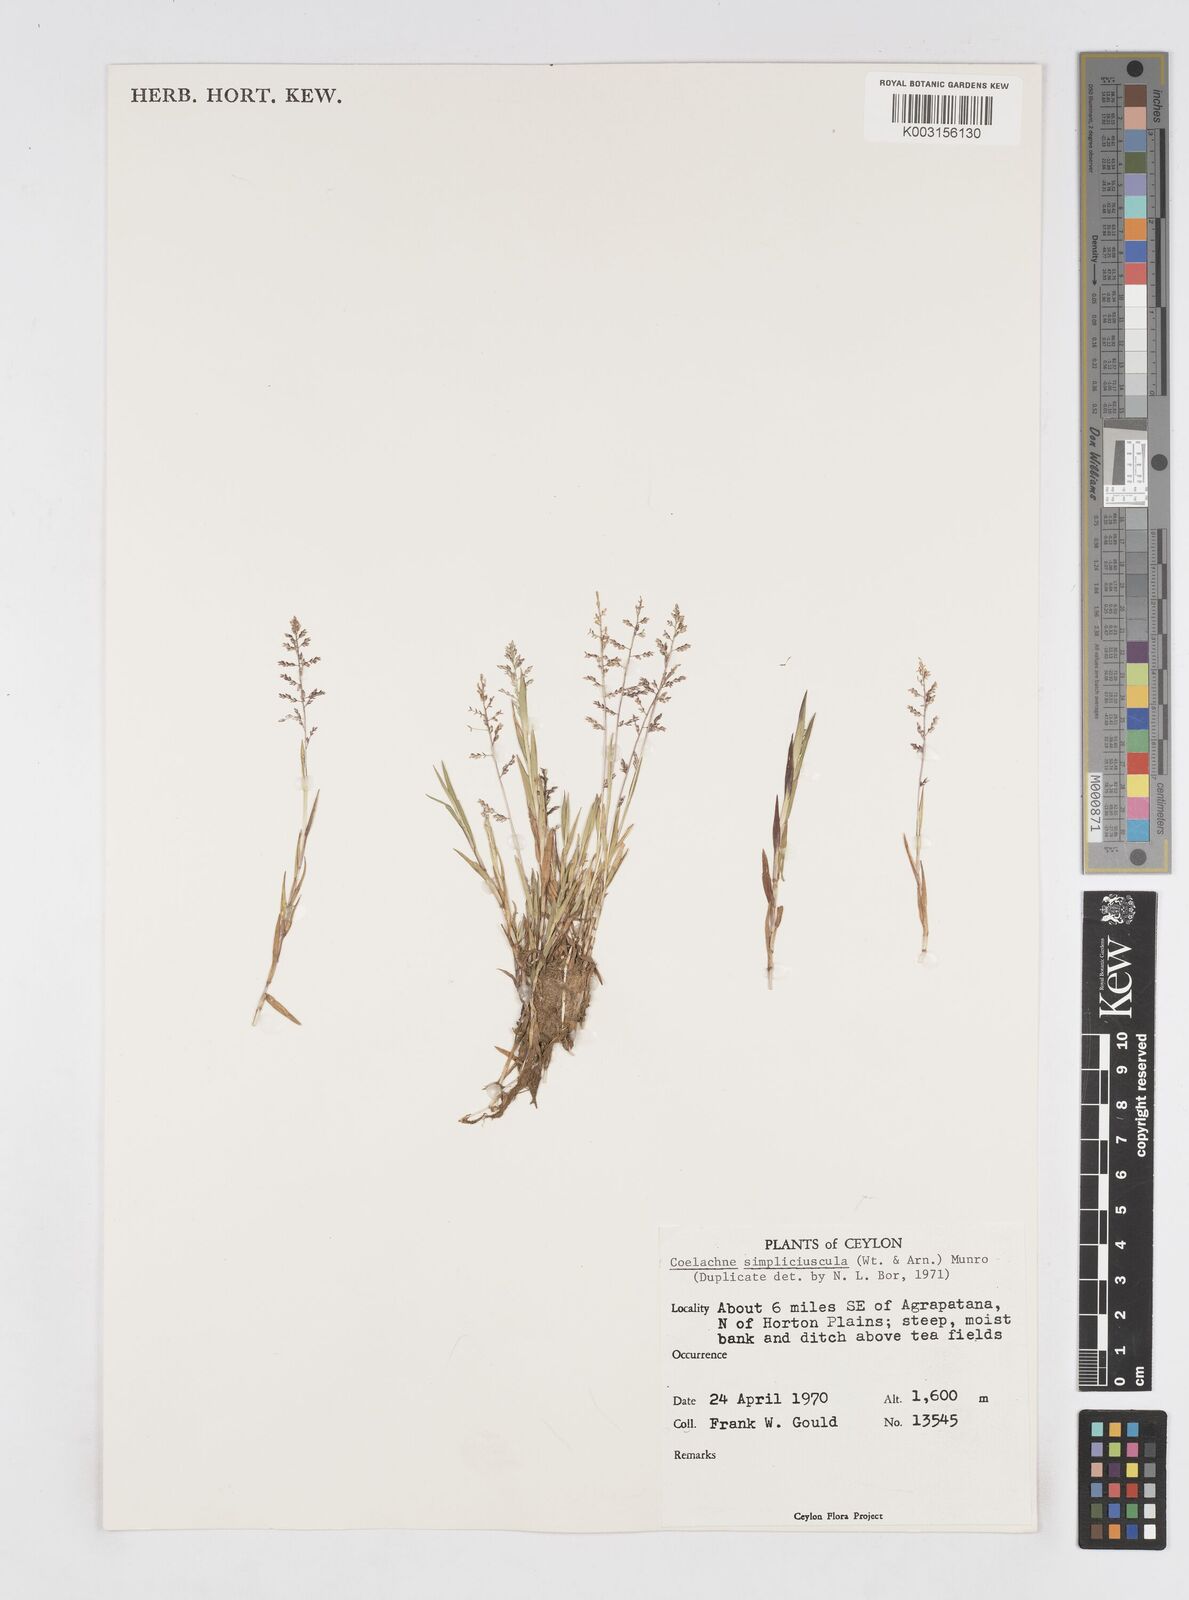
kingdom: Plantae
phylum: Tracheophyta
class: Liliopsida
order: Poales
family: Poaceae
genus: Coelachne
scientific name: Coelachne simpliciuscula
